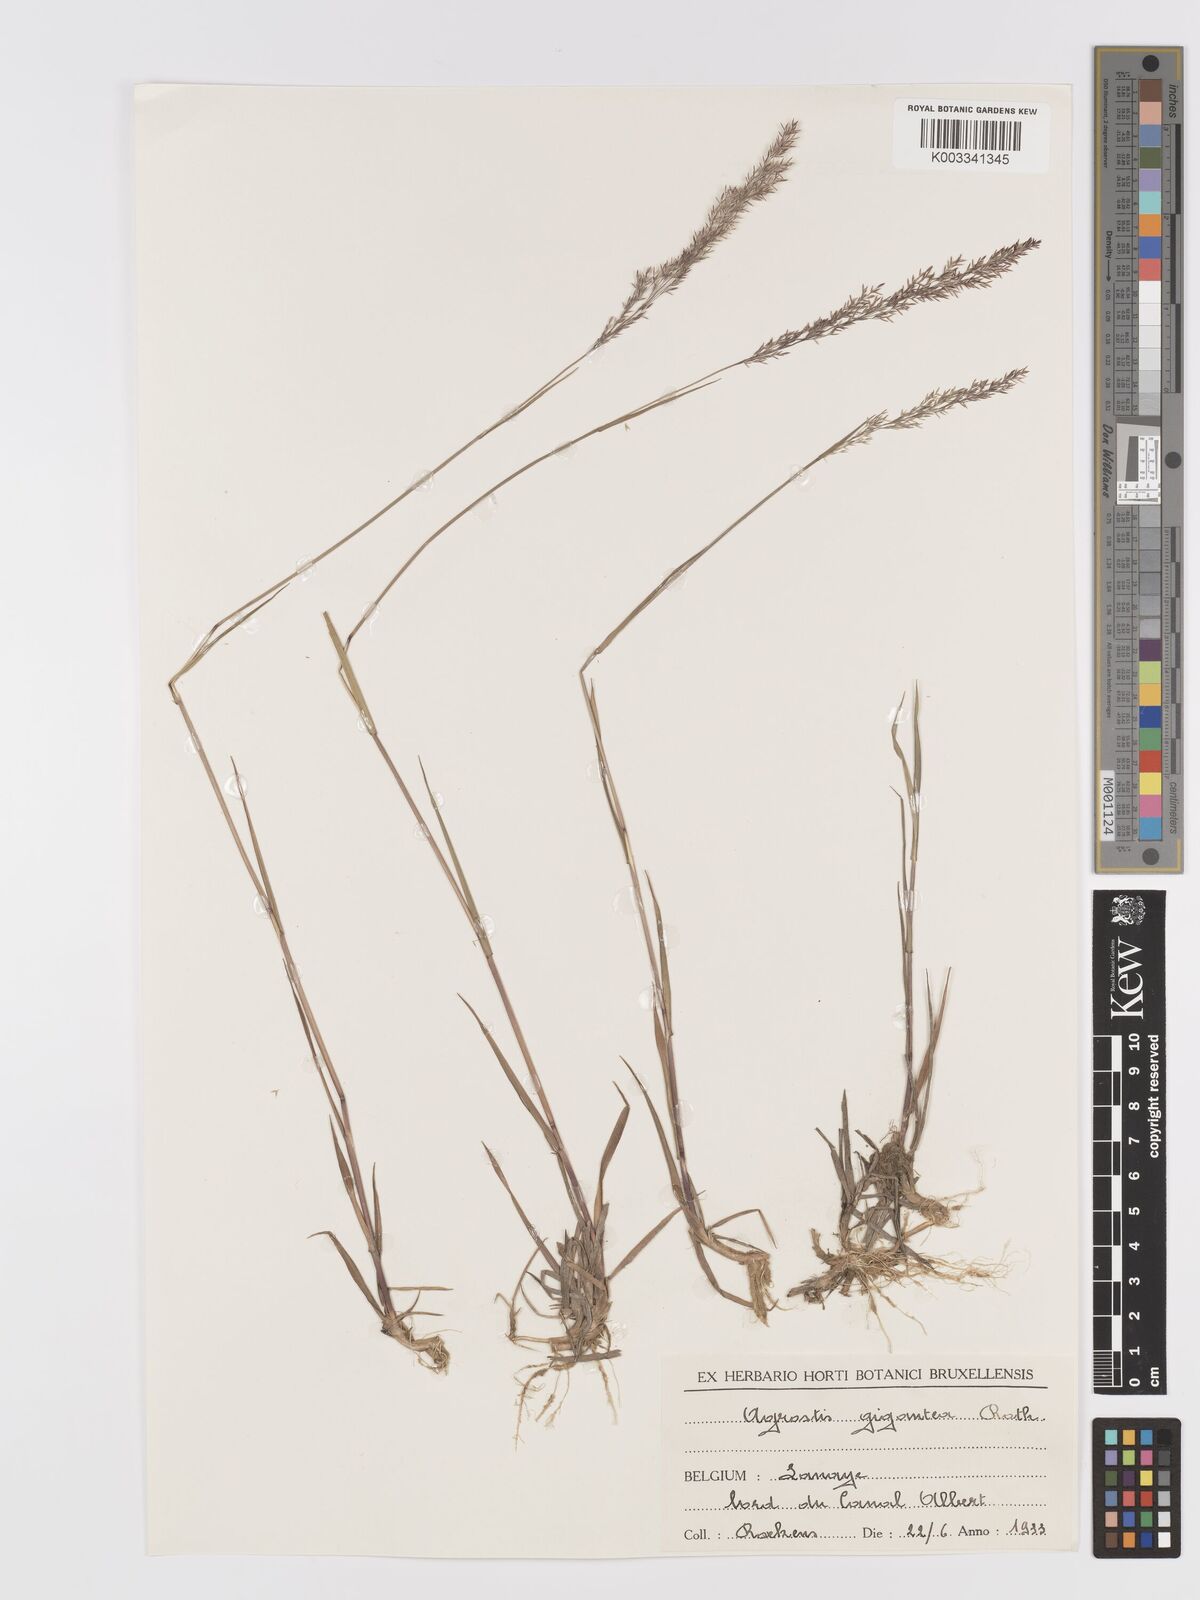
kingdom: Plantae
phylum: Tracheophyta
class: Liliopsida
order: Poales
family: Poaceae
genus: Agrostis
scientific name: Agrostis gigantea
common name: Black bent
